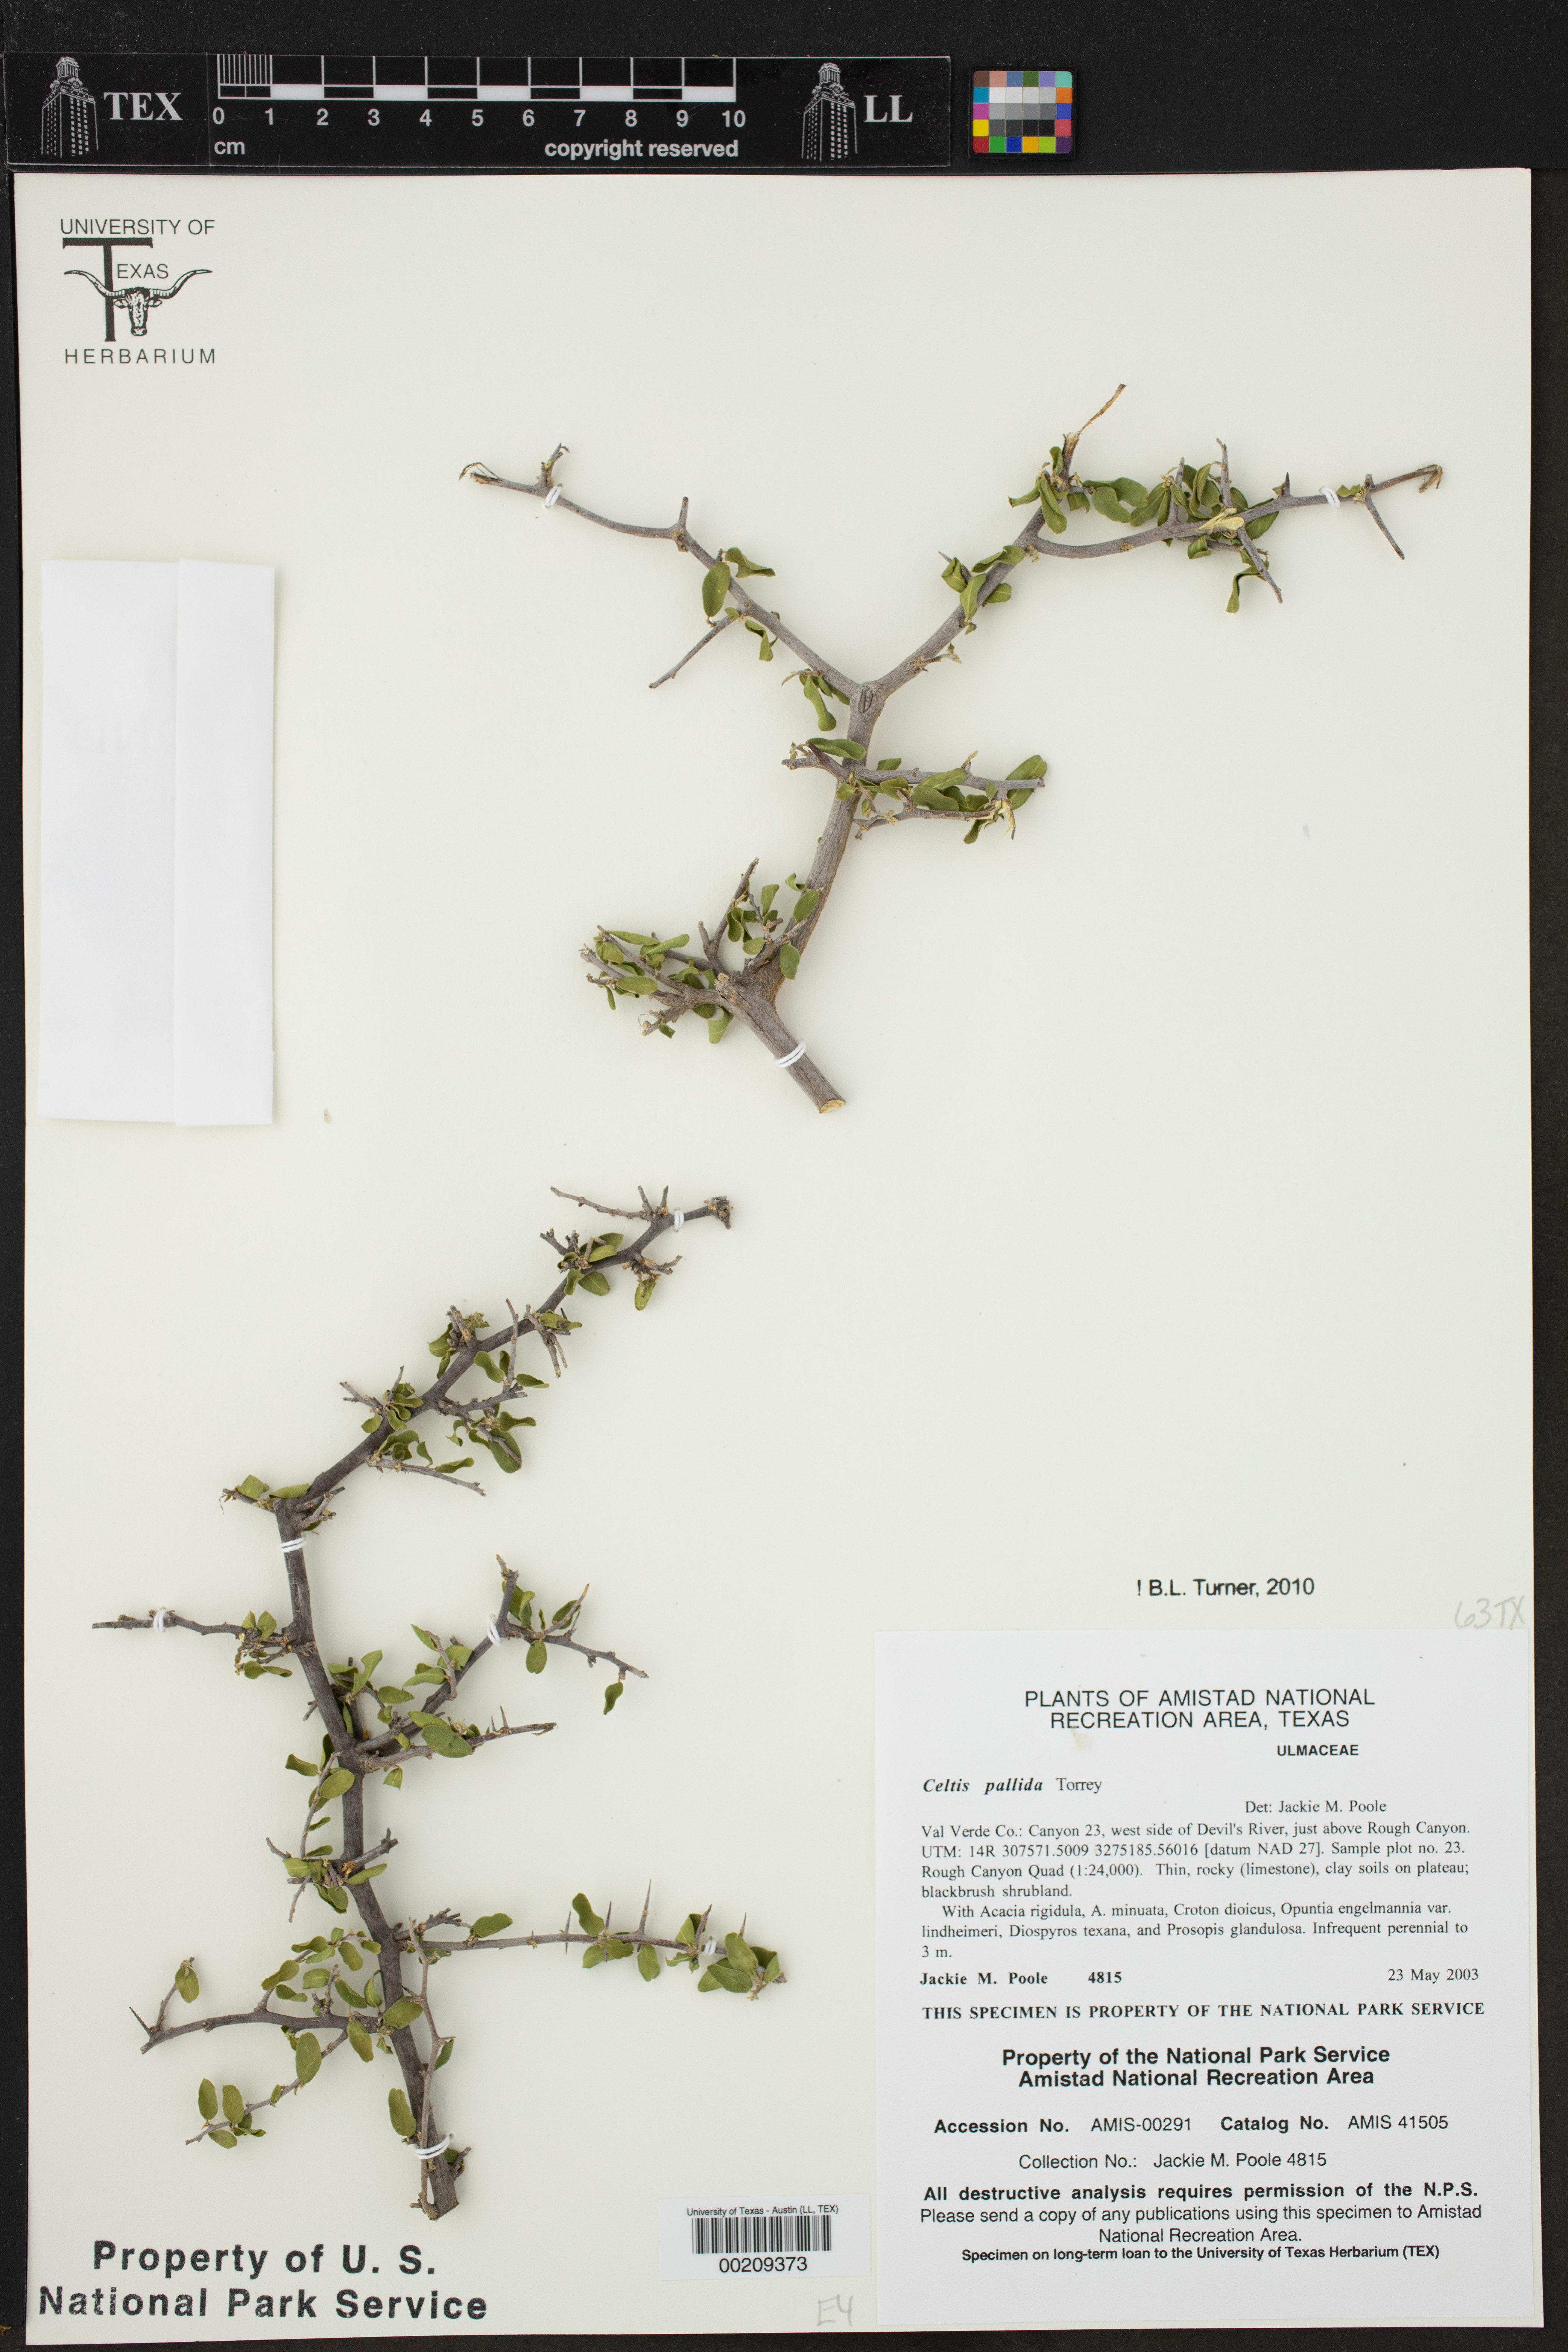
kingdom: Plantae
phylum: Tracheophyta
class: Magnoliopsida
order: Rosales
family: Cannabaceae
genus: Celtis
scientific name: Celtis pallida
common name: Desert hackberry
